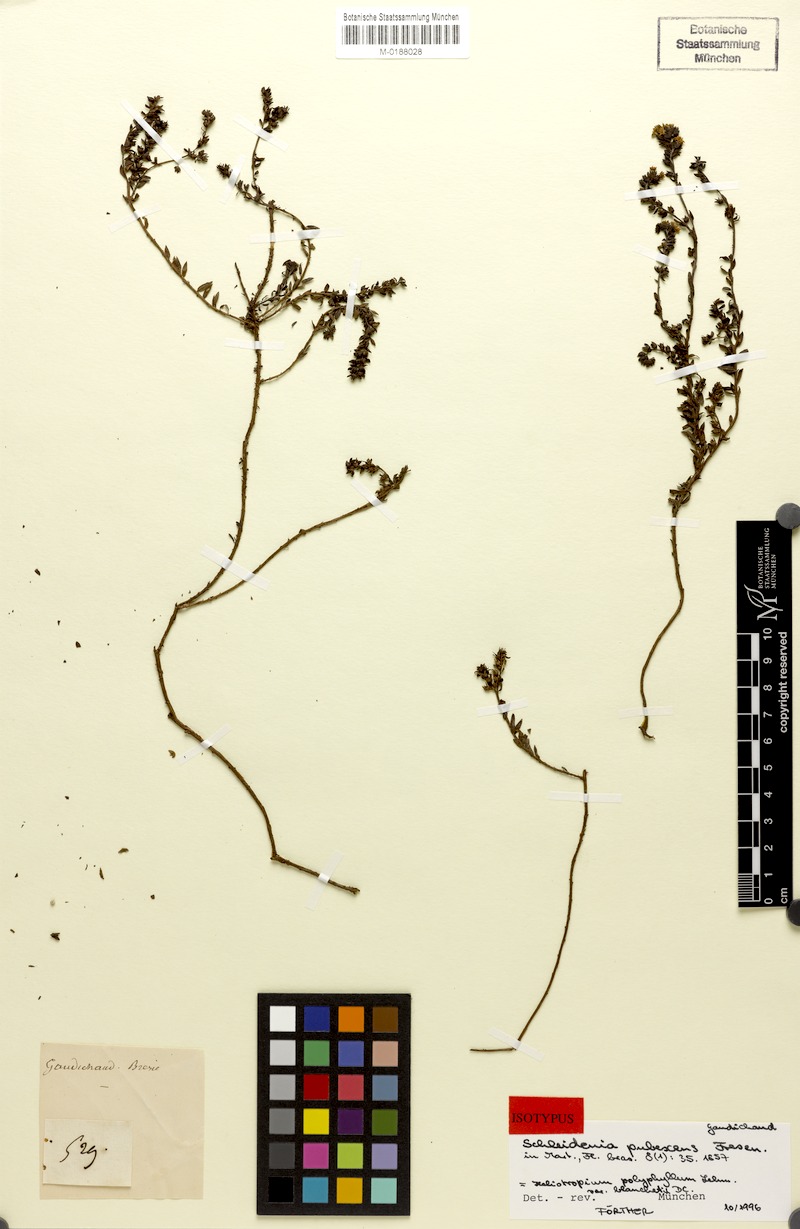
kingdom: Plantae
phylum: Tracheophyta
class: Magnoliopsida
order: Boraginales
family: Heliotropiaceae
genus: Euploca
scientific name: Euploca polyphylla
